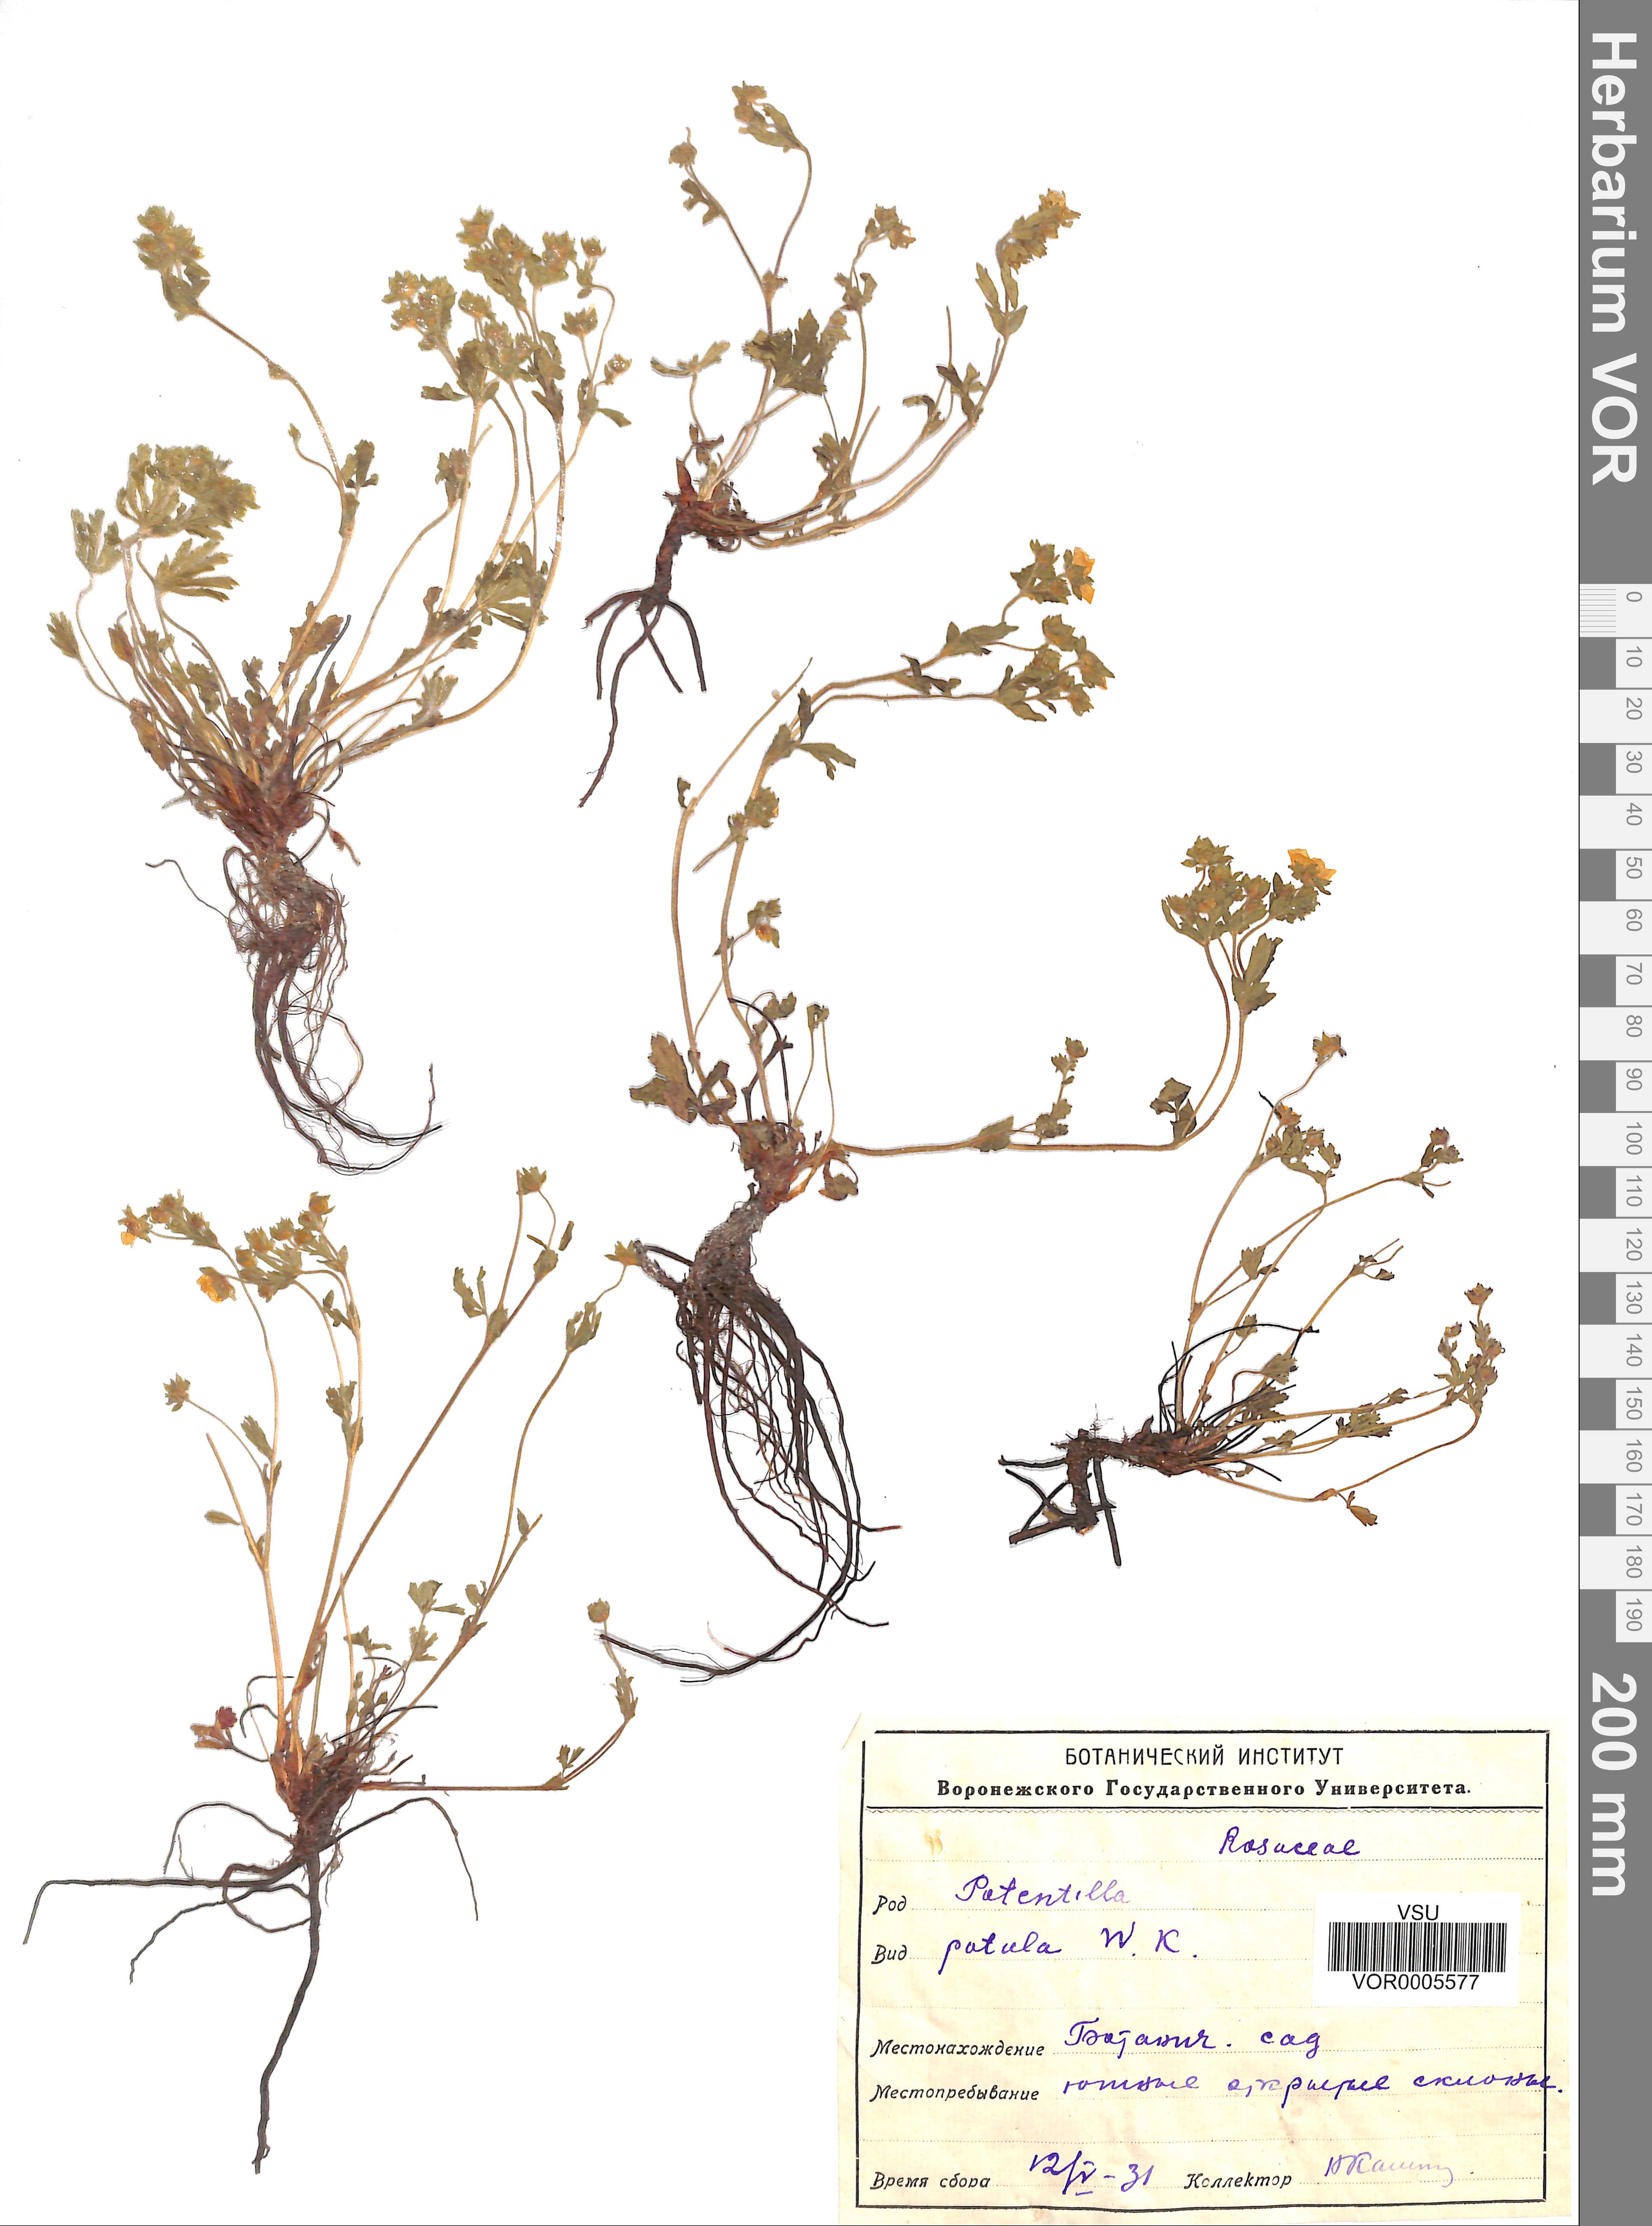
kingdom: Plantae
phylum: Tracheophyta
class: Magnoliopsida
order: Rosales
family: Rosaceae
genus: Potentilla
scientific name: Potentilla patula
